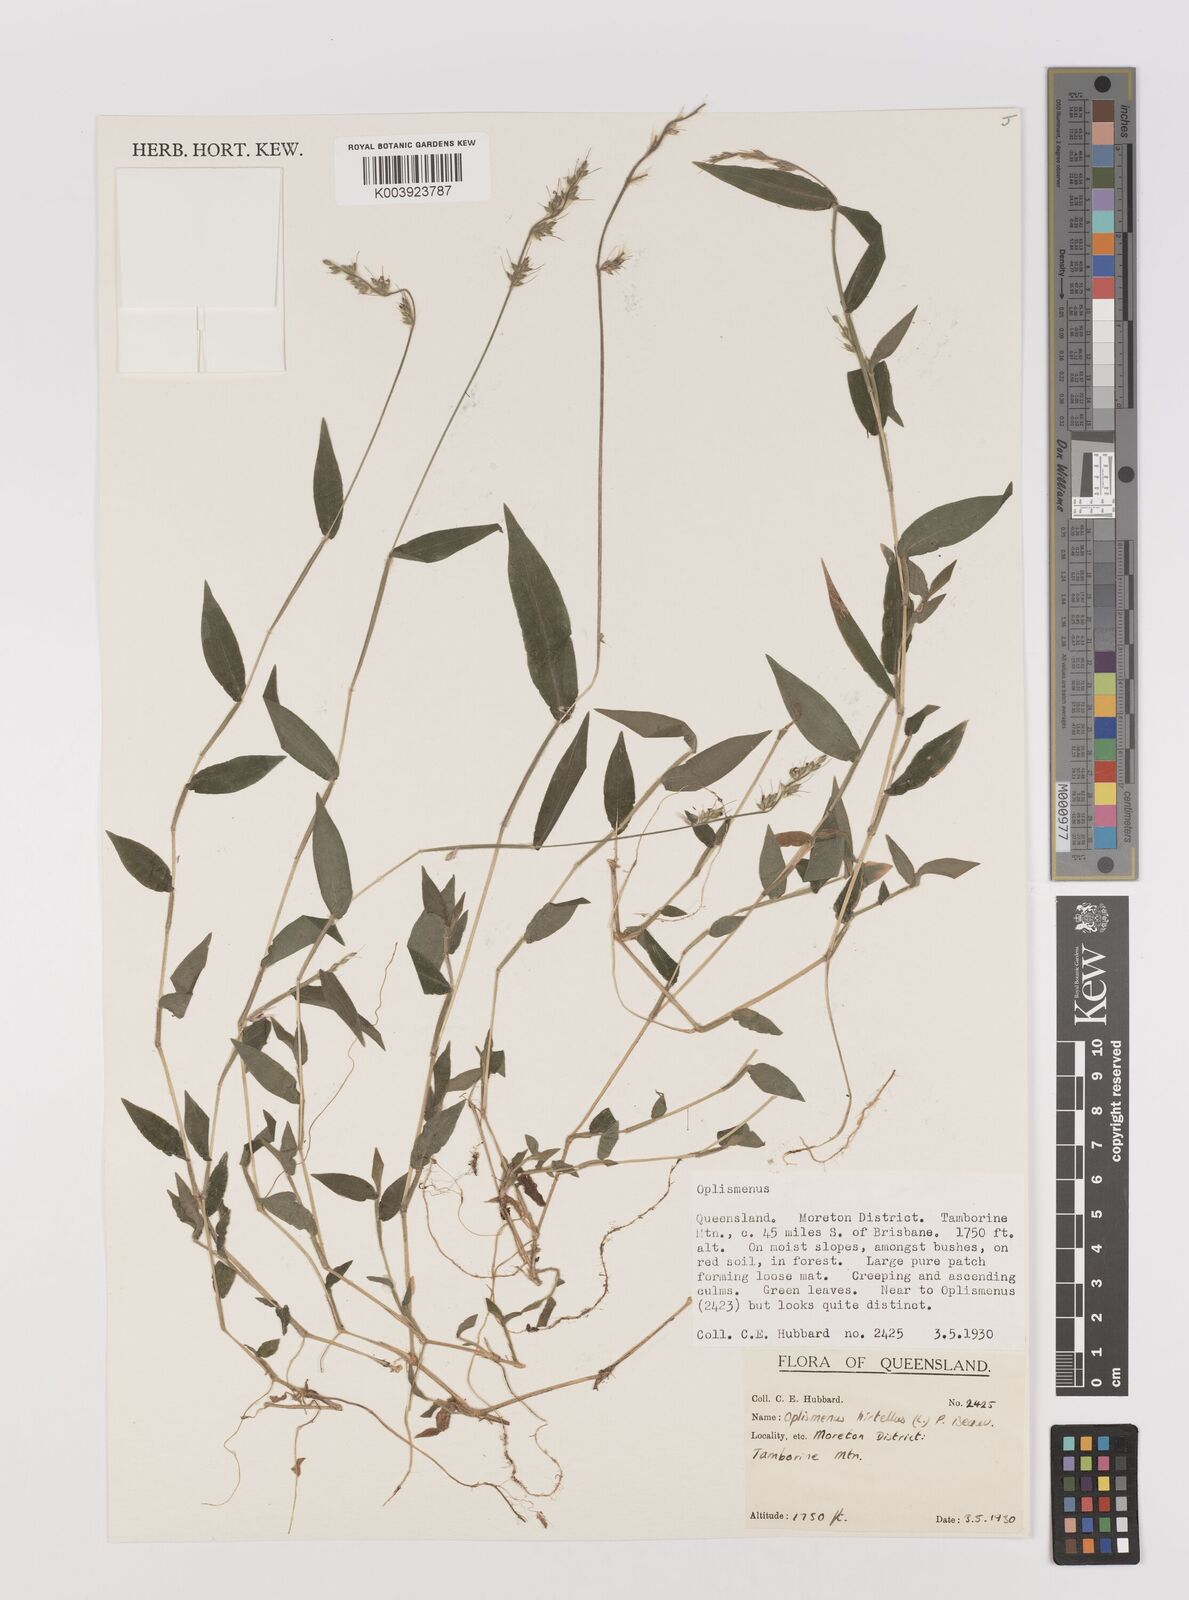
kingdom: Plantae
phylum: Tracheophyta
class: Liliopsida
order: Poales
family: Poaceae
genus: Oplismenus
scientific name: Oplismenus hirtellus
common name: Basketgrass
